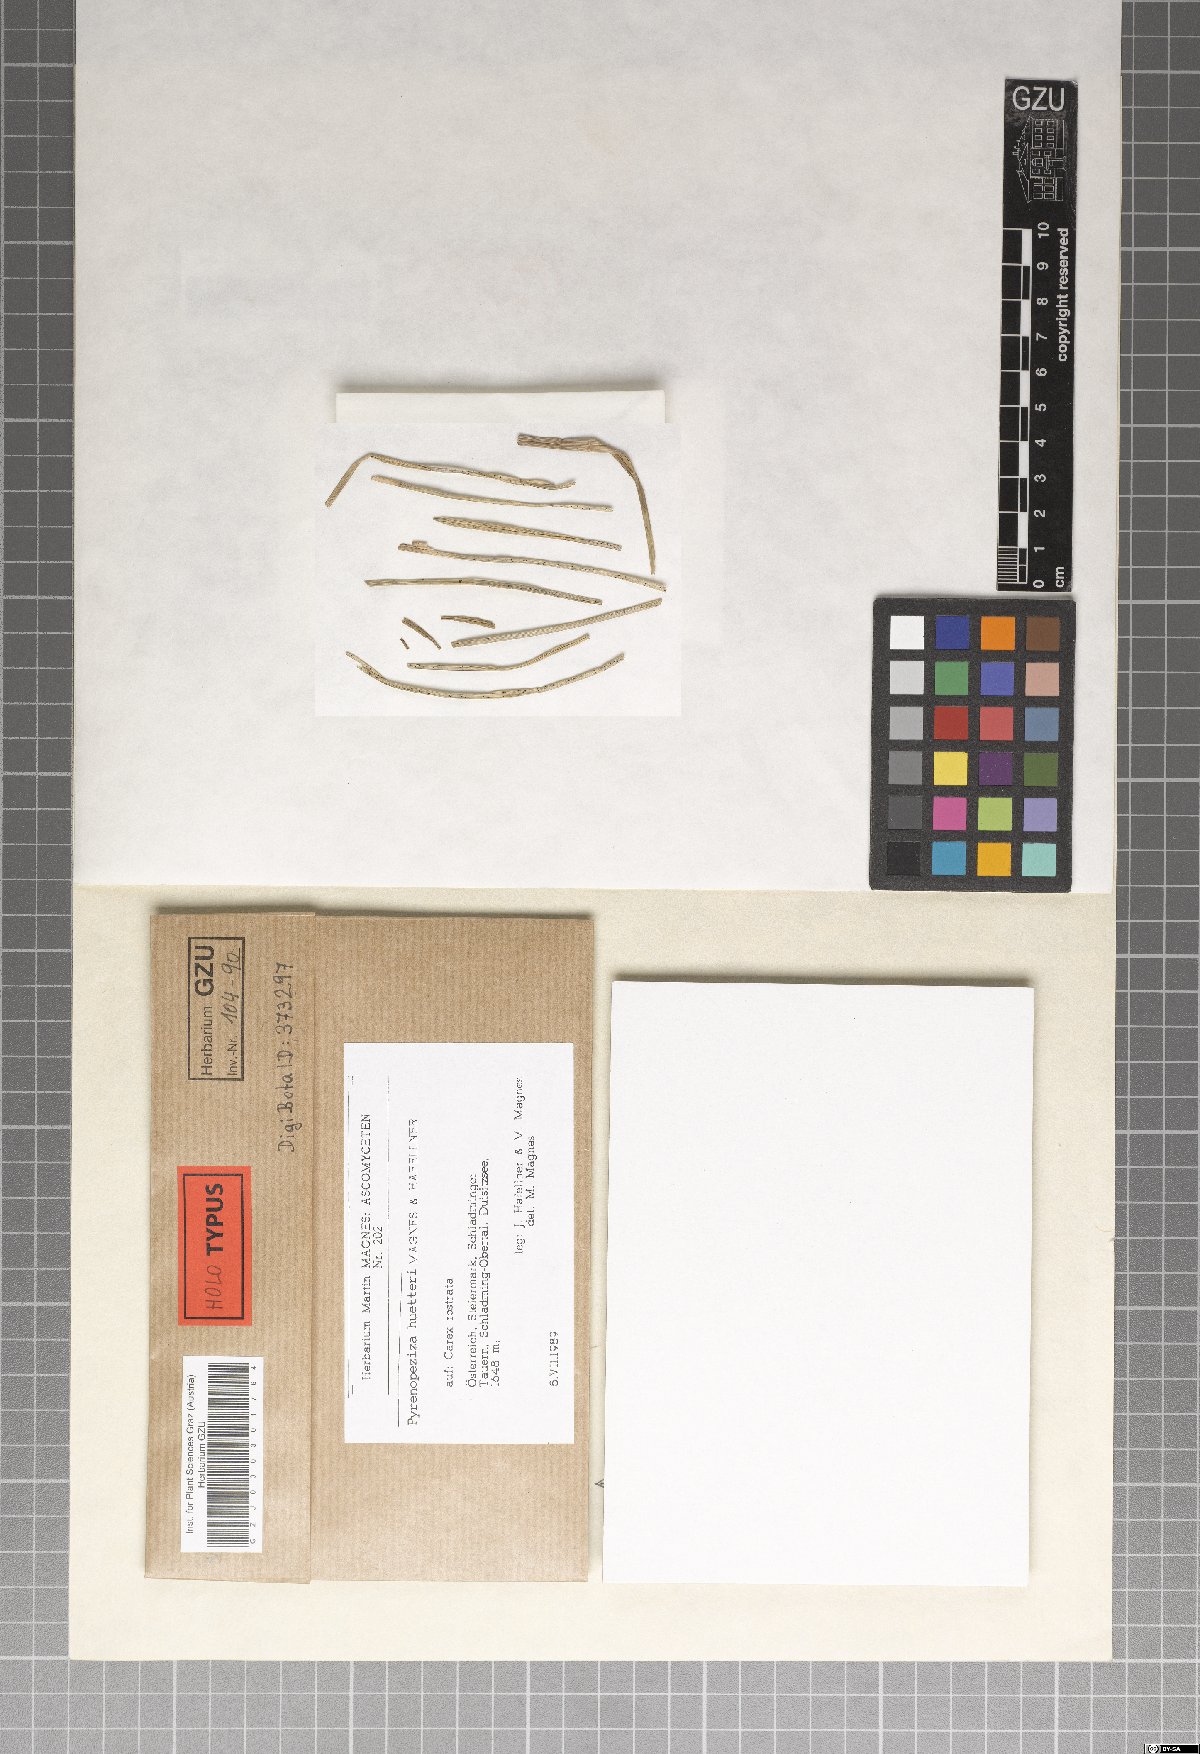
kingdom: Fungi
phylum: Ascomycota
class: Leotiomycetes
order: Helotiales
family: Ploettnerulaceae
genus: Pyrenopeziza
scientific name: Pyrenopeziza huetteri
